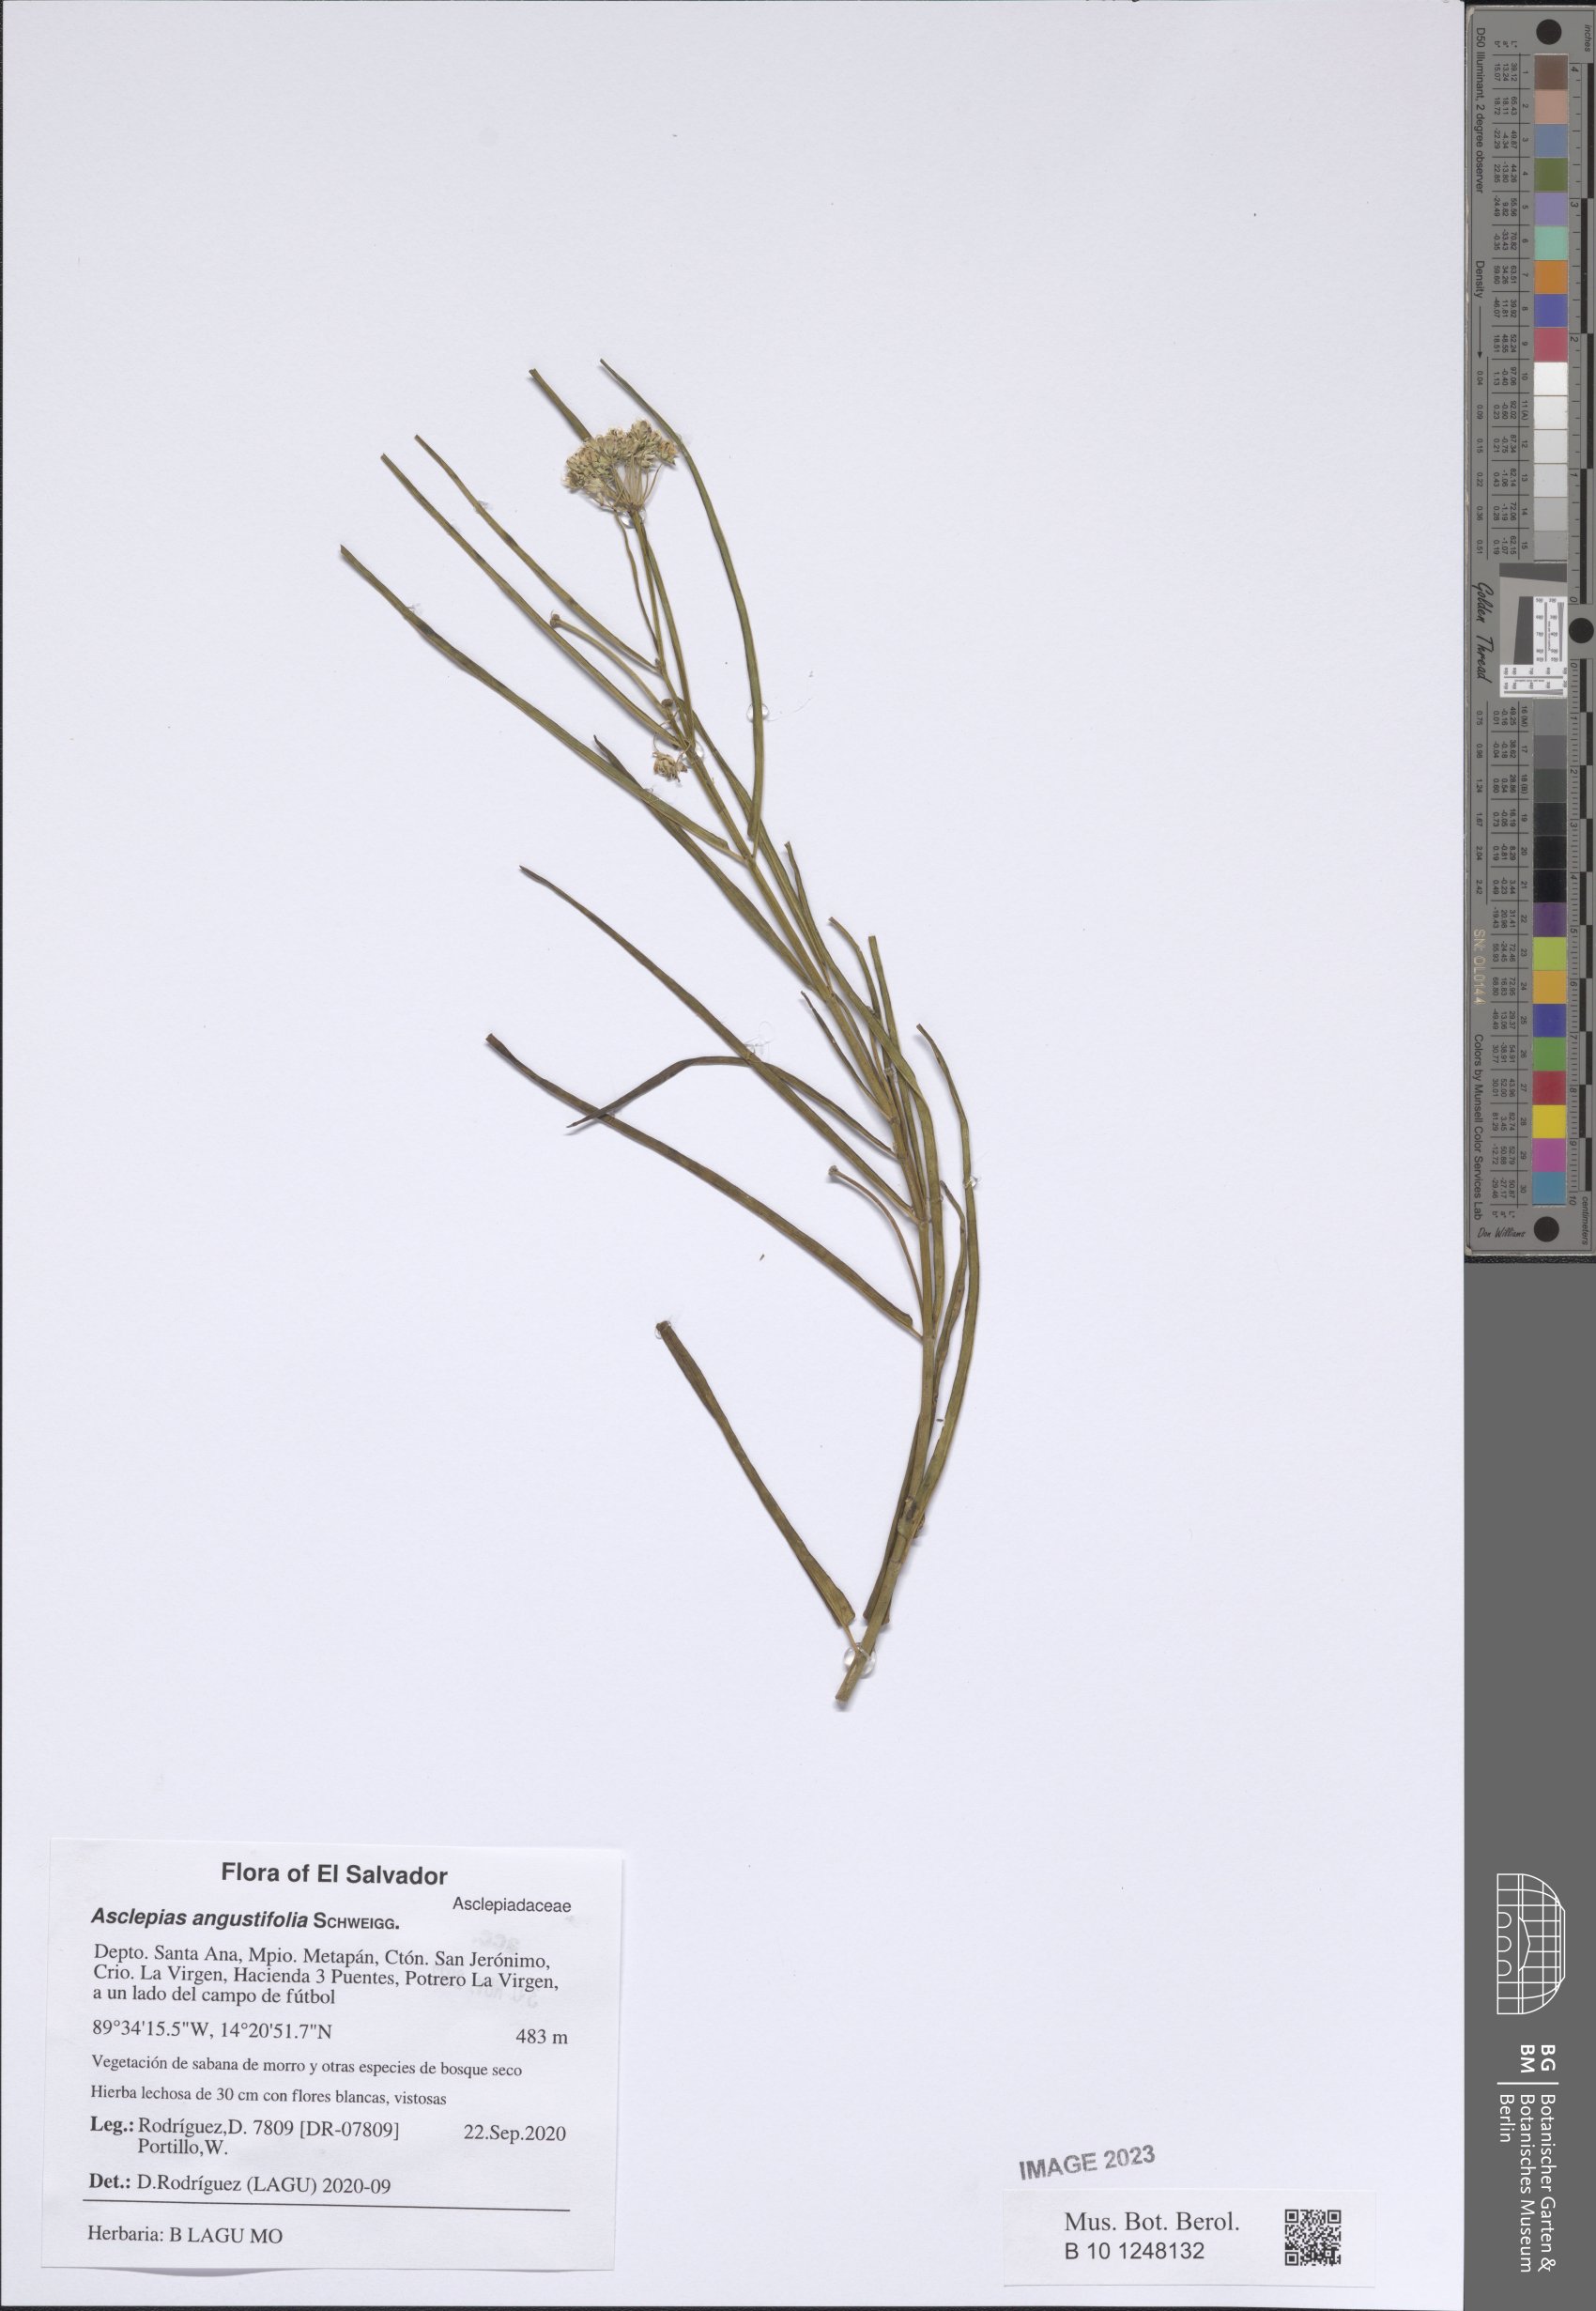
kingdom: Plantae
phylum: Tracheophyta
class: Magnoliopsida
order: Gentianales
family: Apocynaceae
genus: Asclepias
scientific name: Asclepias angustifolia
